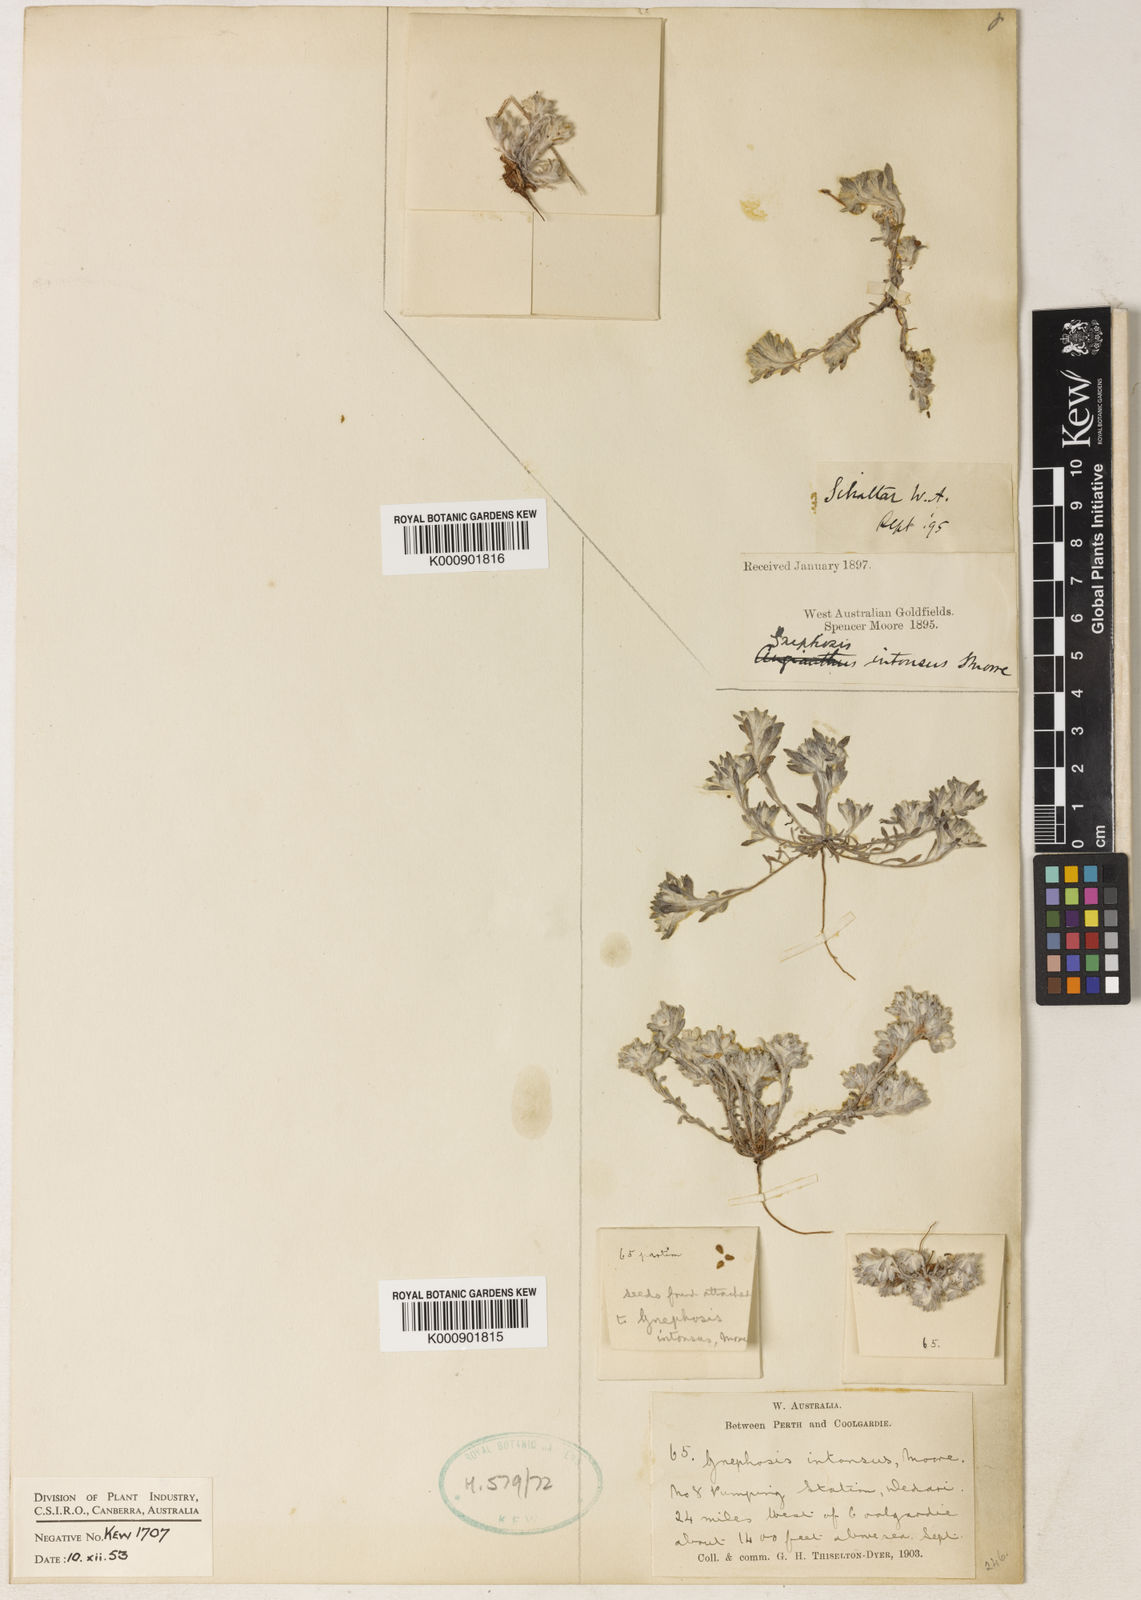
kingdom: Plantae
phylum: Tracheophyta
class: Magnoliopsida
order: Asterales
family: Asteraceae
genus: Gnephosis
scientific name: Gnephosis
